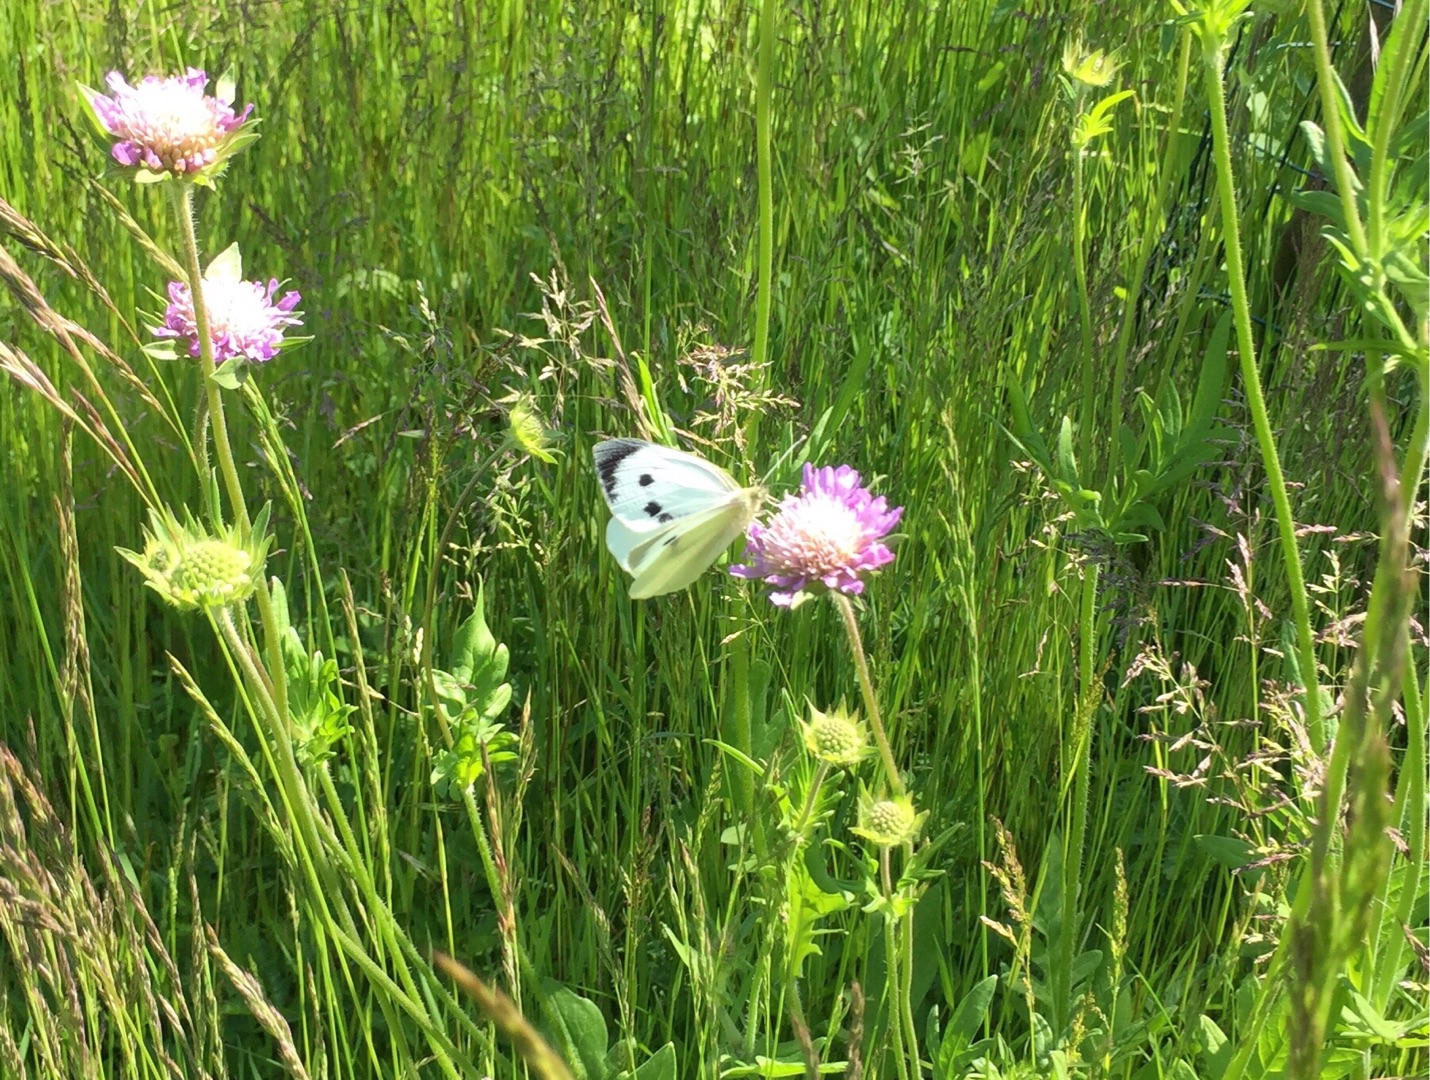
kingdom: Animalia
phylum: Arthropoda
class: Insecta
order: Lepidoptera
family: Pieridae
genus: Pieris
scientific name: Pieris brassicae
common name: Stor kålsommerfugl
